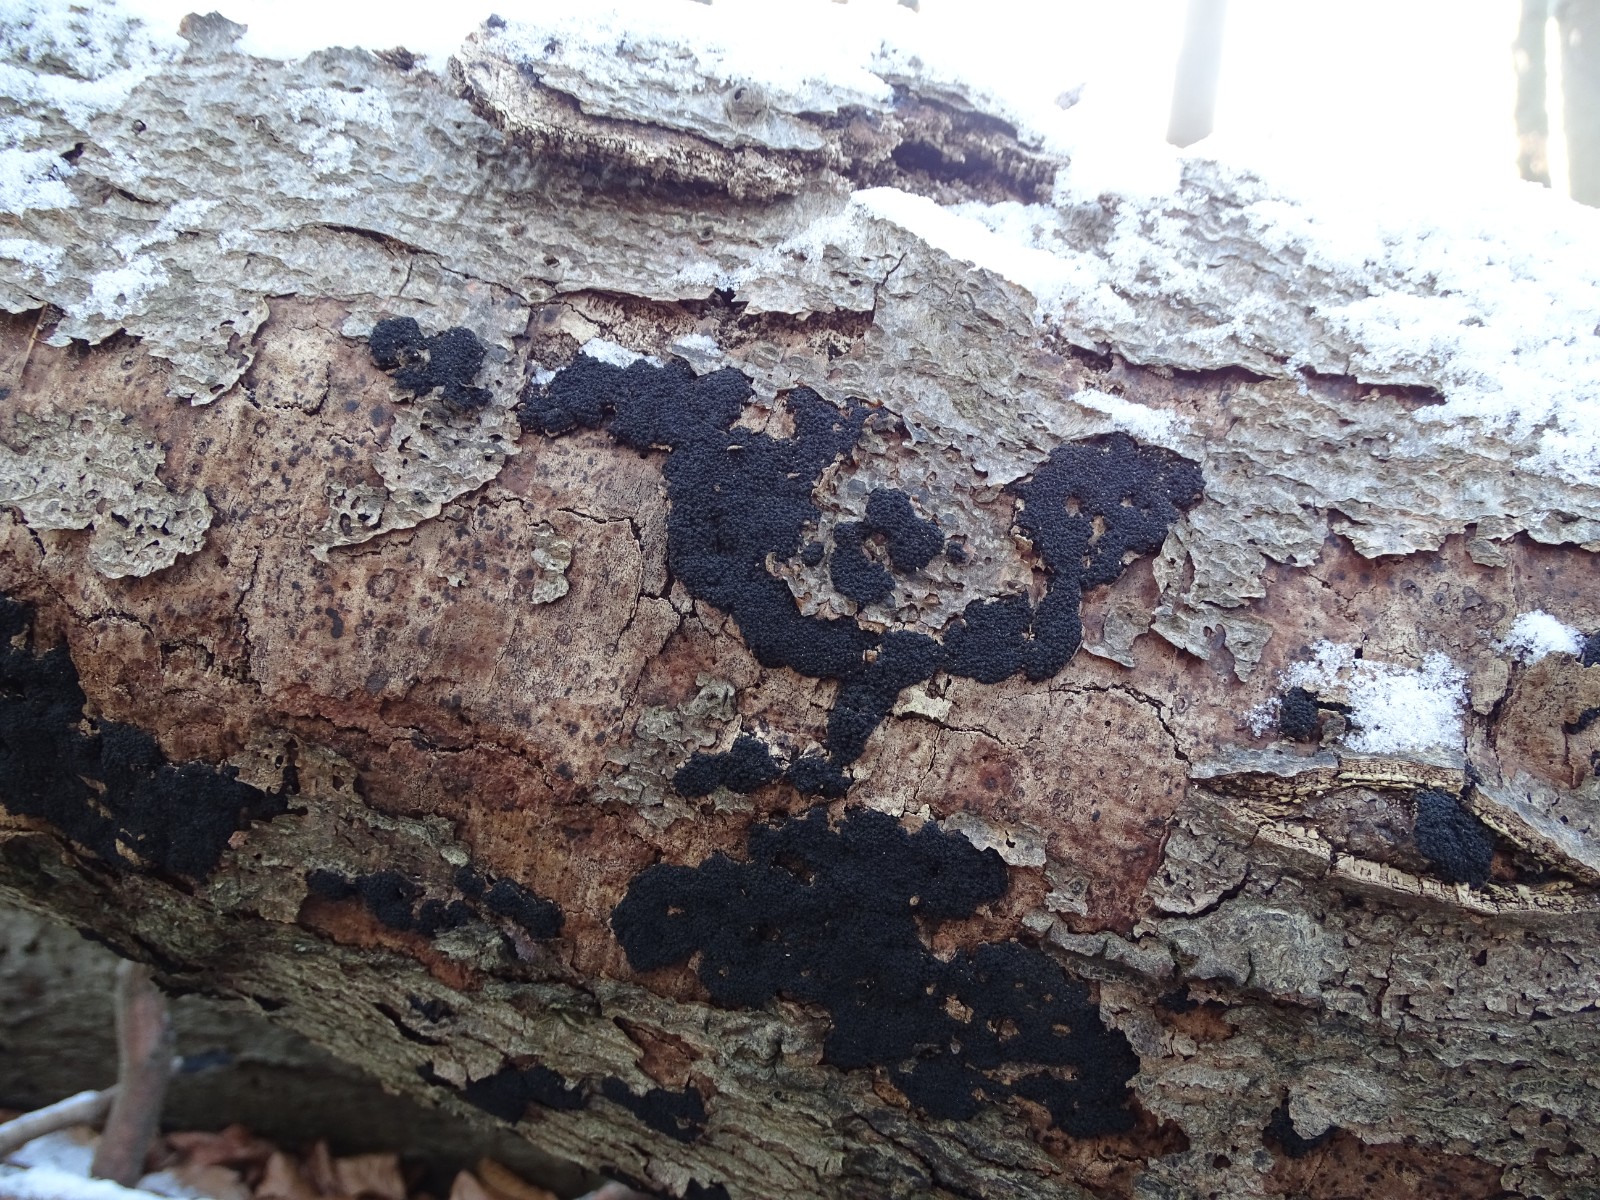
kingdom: Fungi
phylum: Ascomycota
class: Sordariomycetes
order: Xylariales
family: Diatrypaceae
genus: Eutypa
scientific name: Eutypa spinosa
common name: grov kulskorpe
